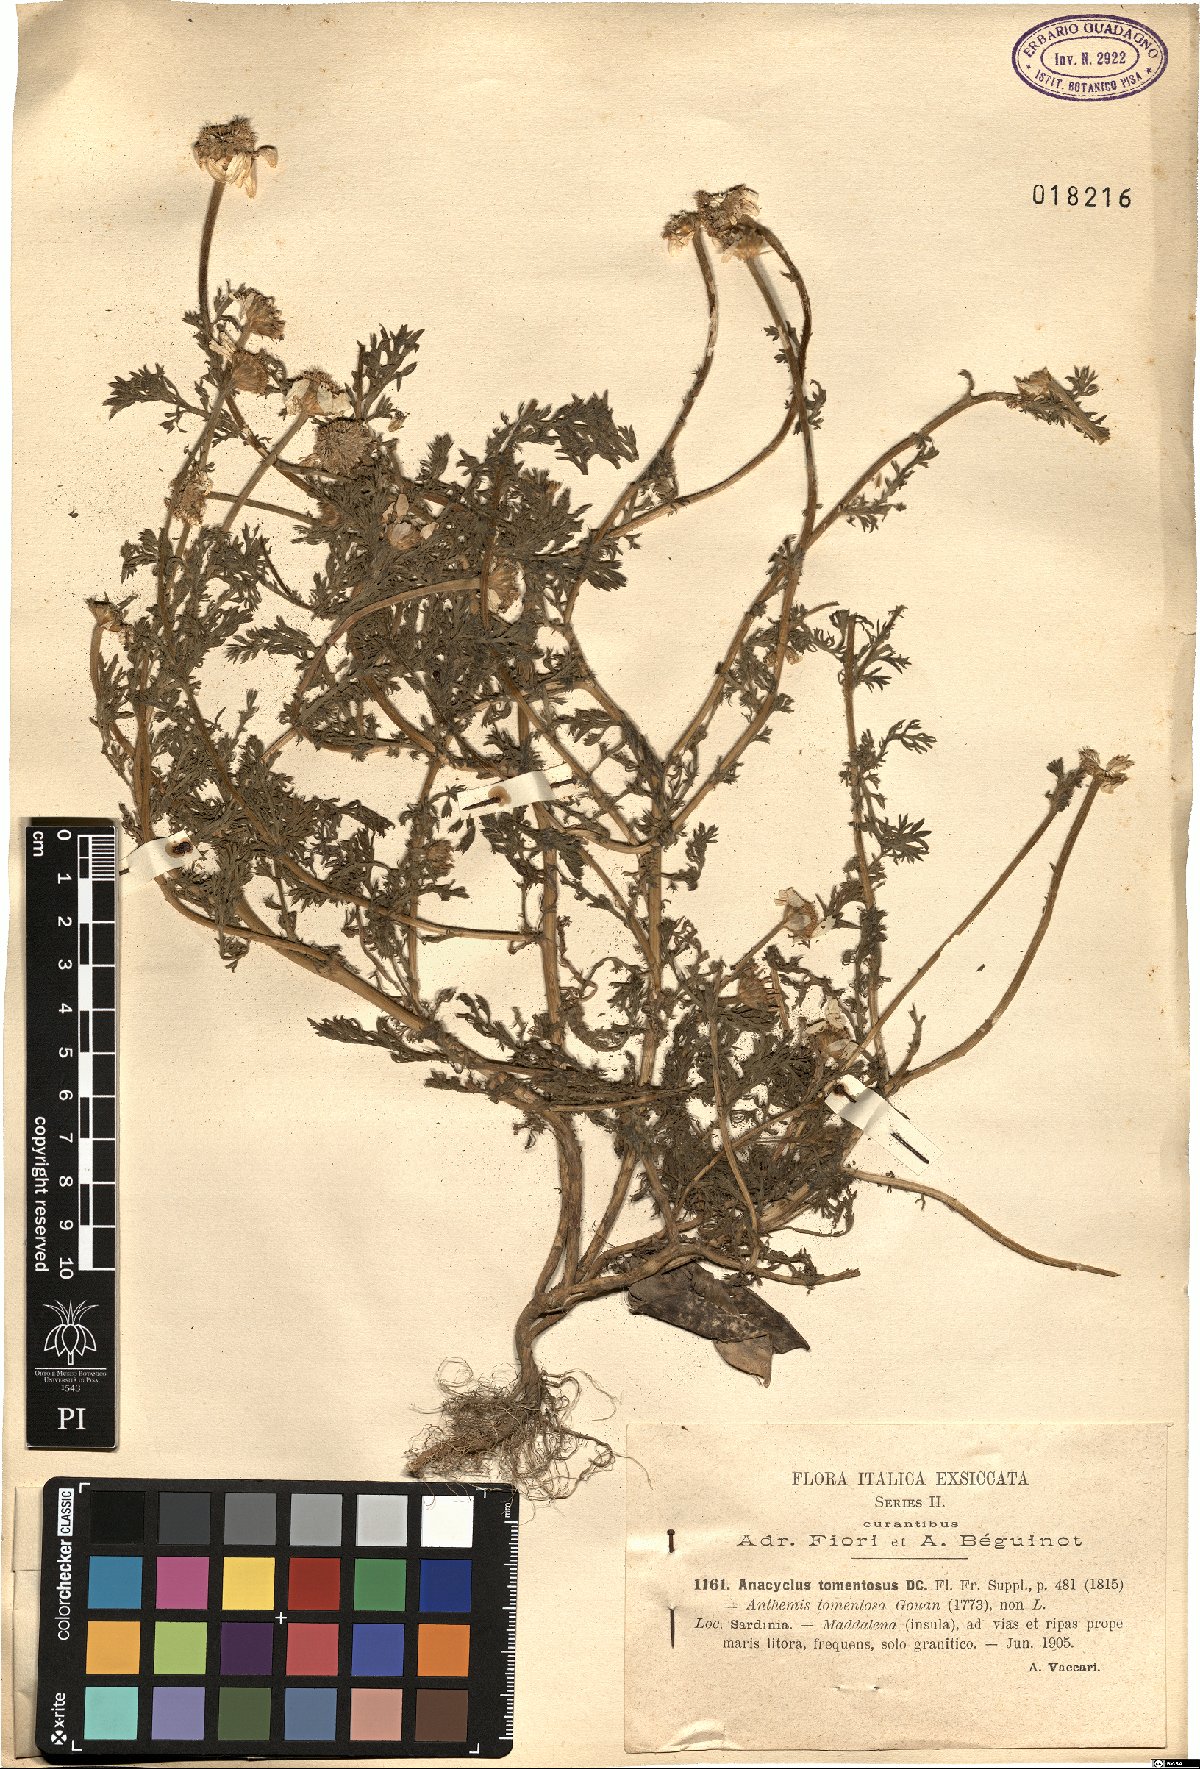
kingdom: Plantae
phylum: Tracheophyta
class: Magnoliopsida
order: Asterales
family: Asteraceae
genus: Anacyclus
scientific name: Anacyclus clavatus
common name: Whitebuttons
